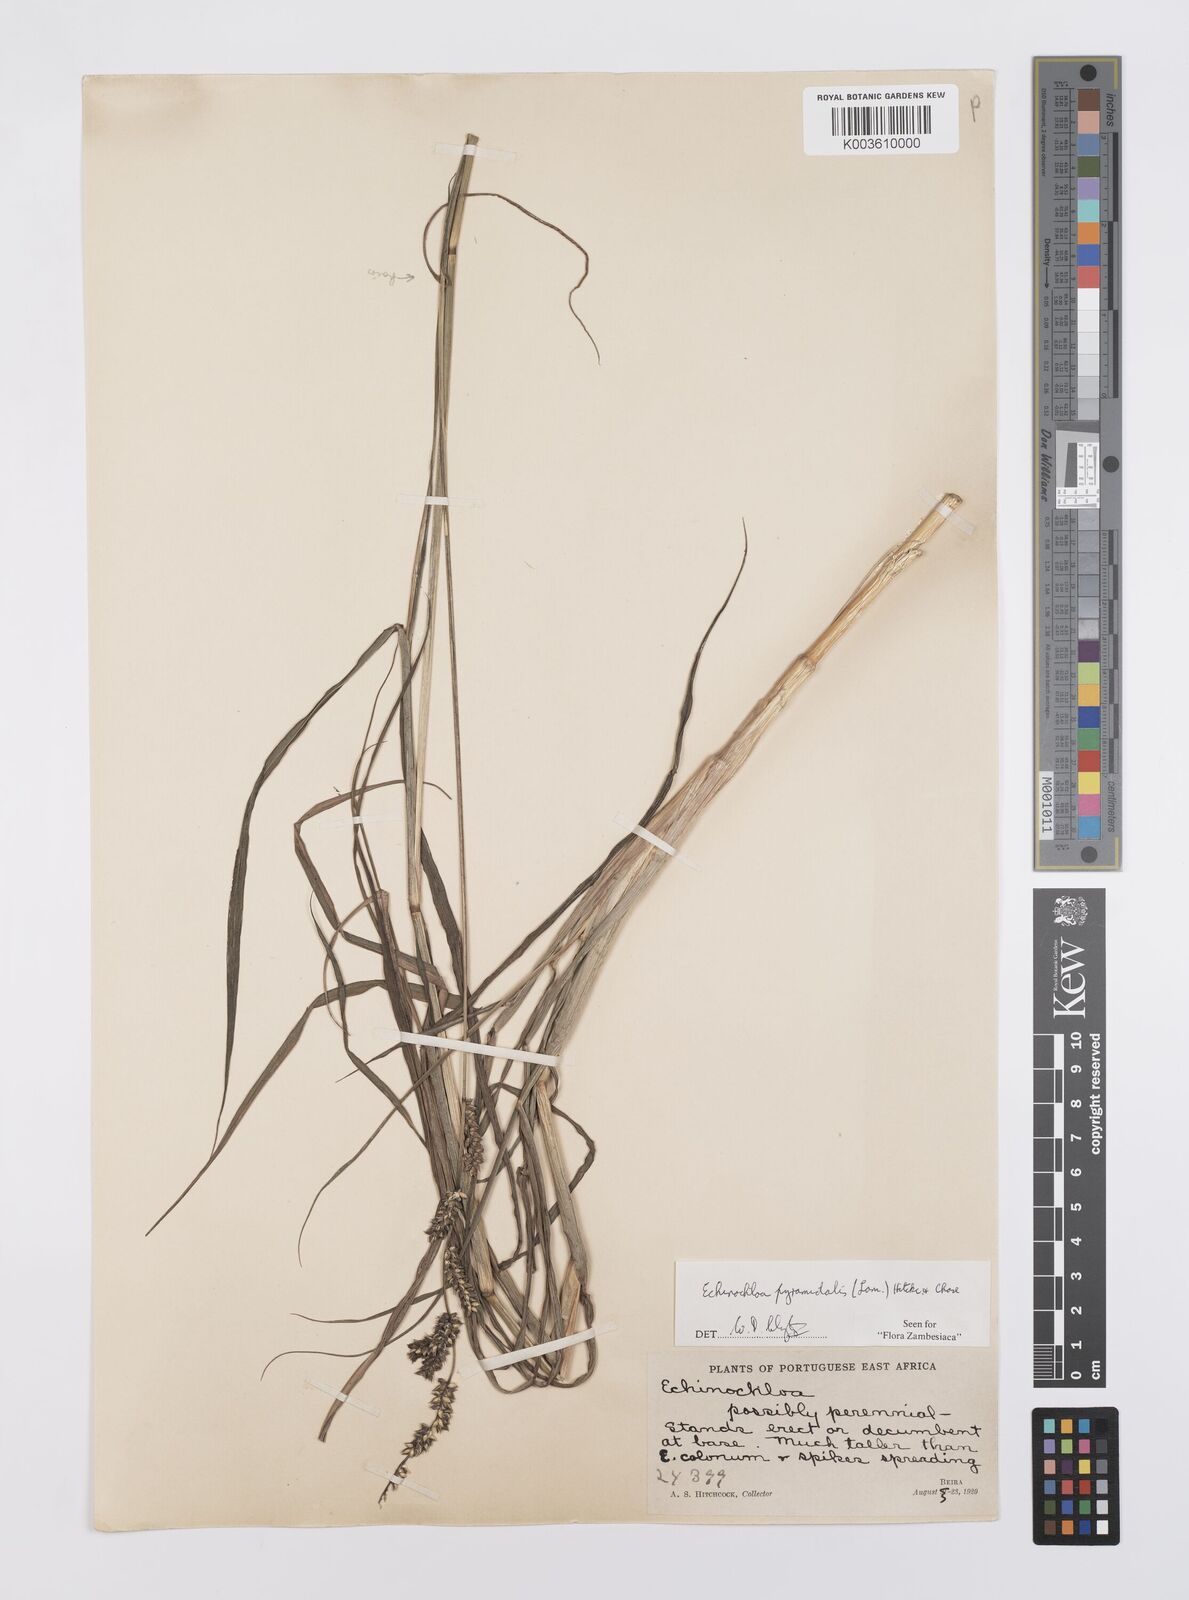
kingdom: Plantae
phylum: Tracheophyta
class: Liliopsida
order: Poales
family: Poaceae
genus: Echinochloa
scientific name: Echinochloa pyramidalis
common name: Antelope grass
